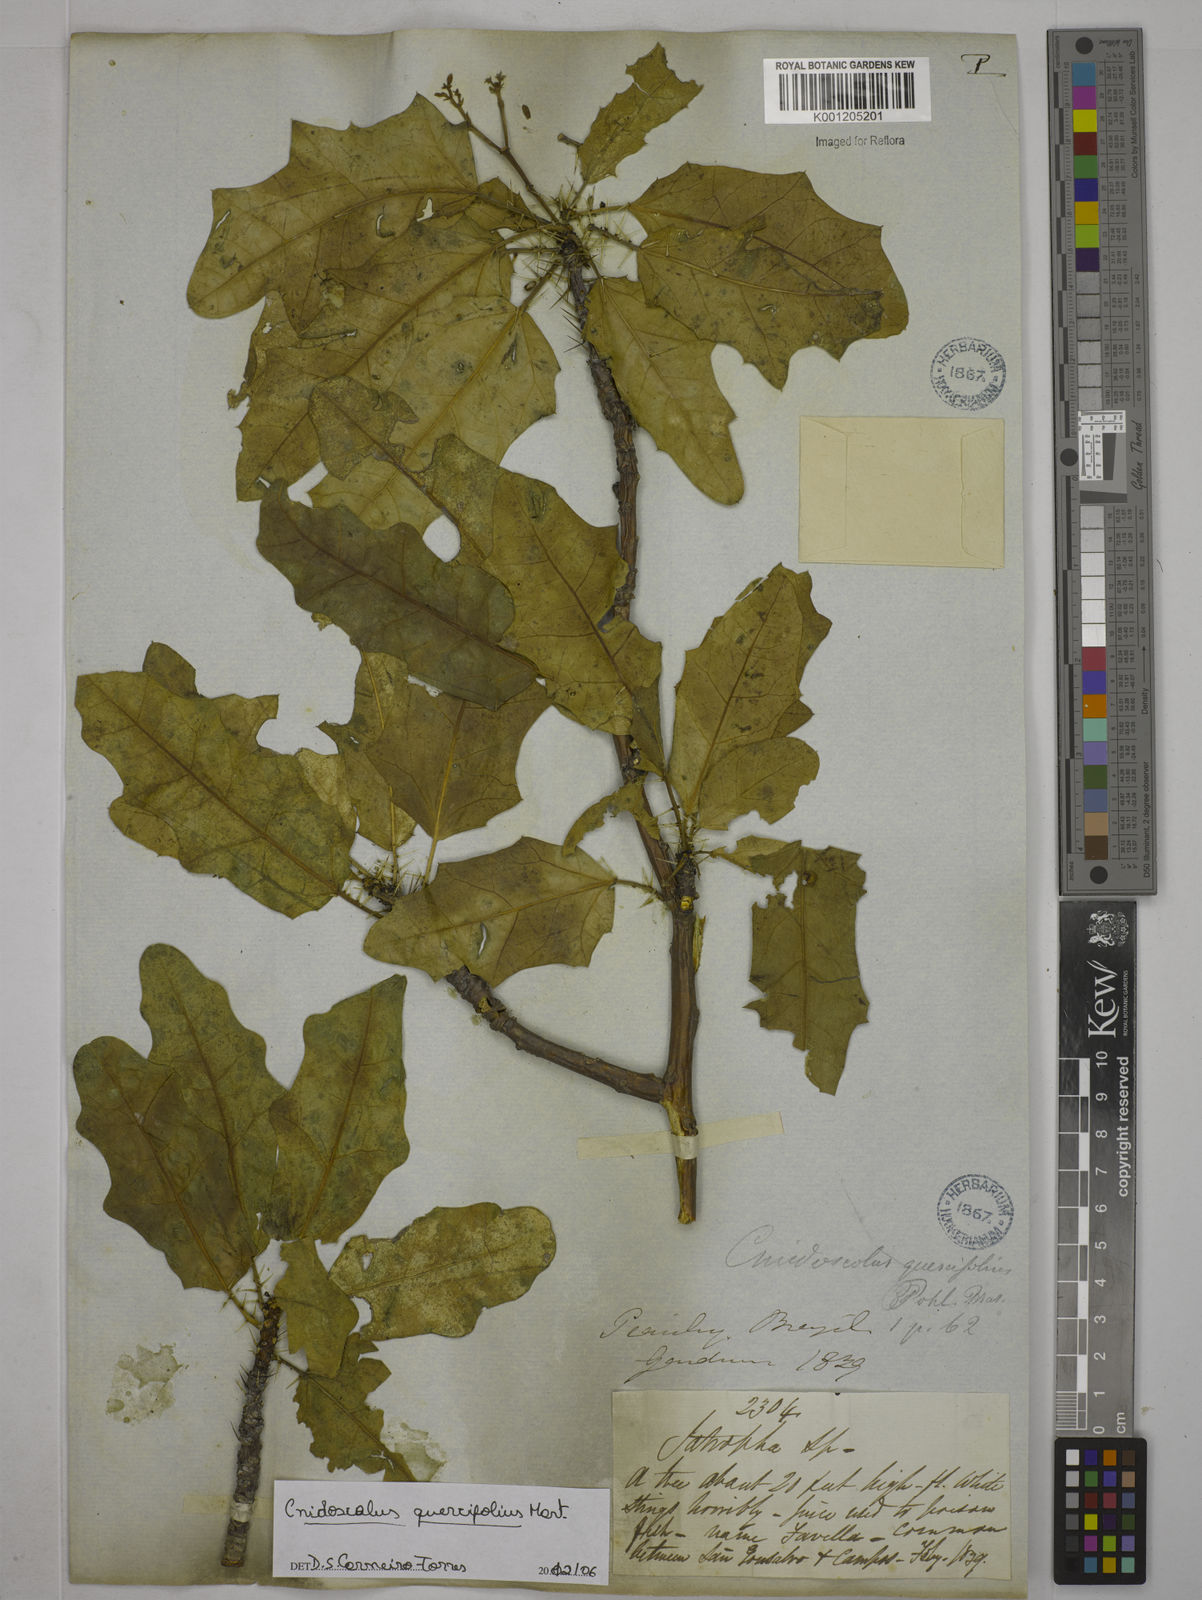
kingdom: Plantae
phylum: Tracheophyta
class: Magnoliopsida
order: Malpighiales
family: Euphorbiaceae
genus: Cnidoscolus
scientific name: Cnidoscolus quercifolius
